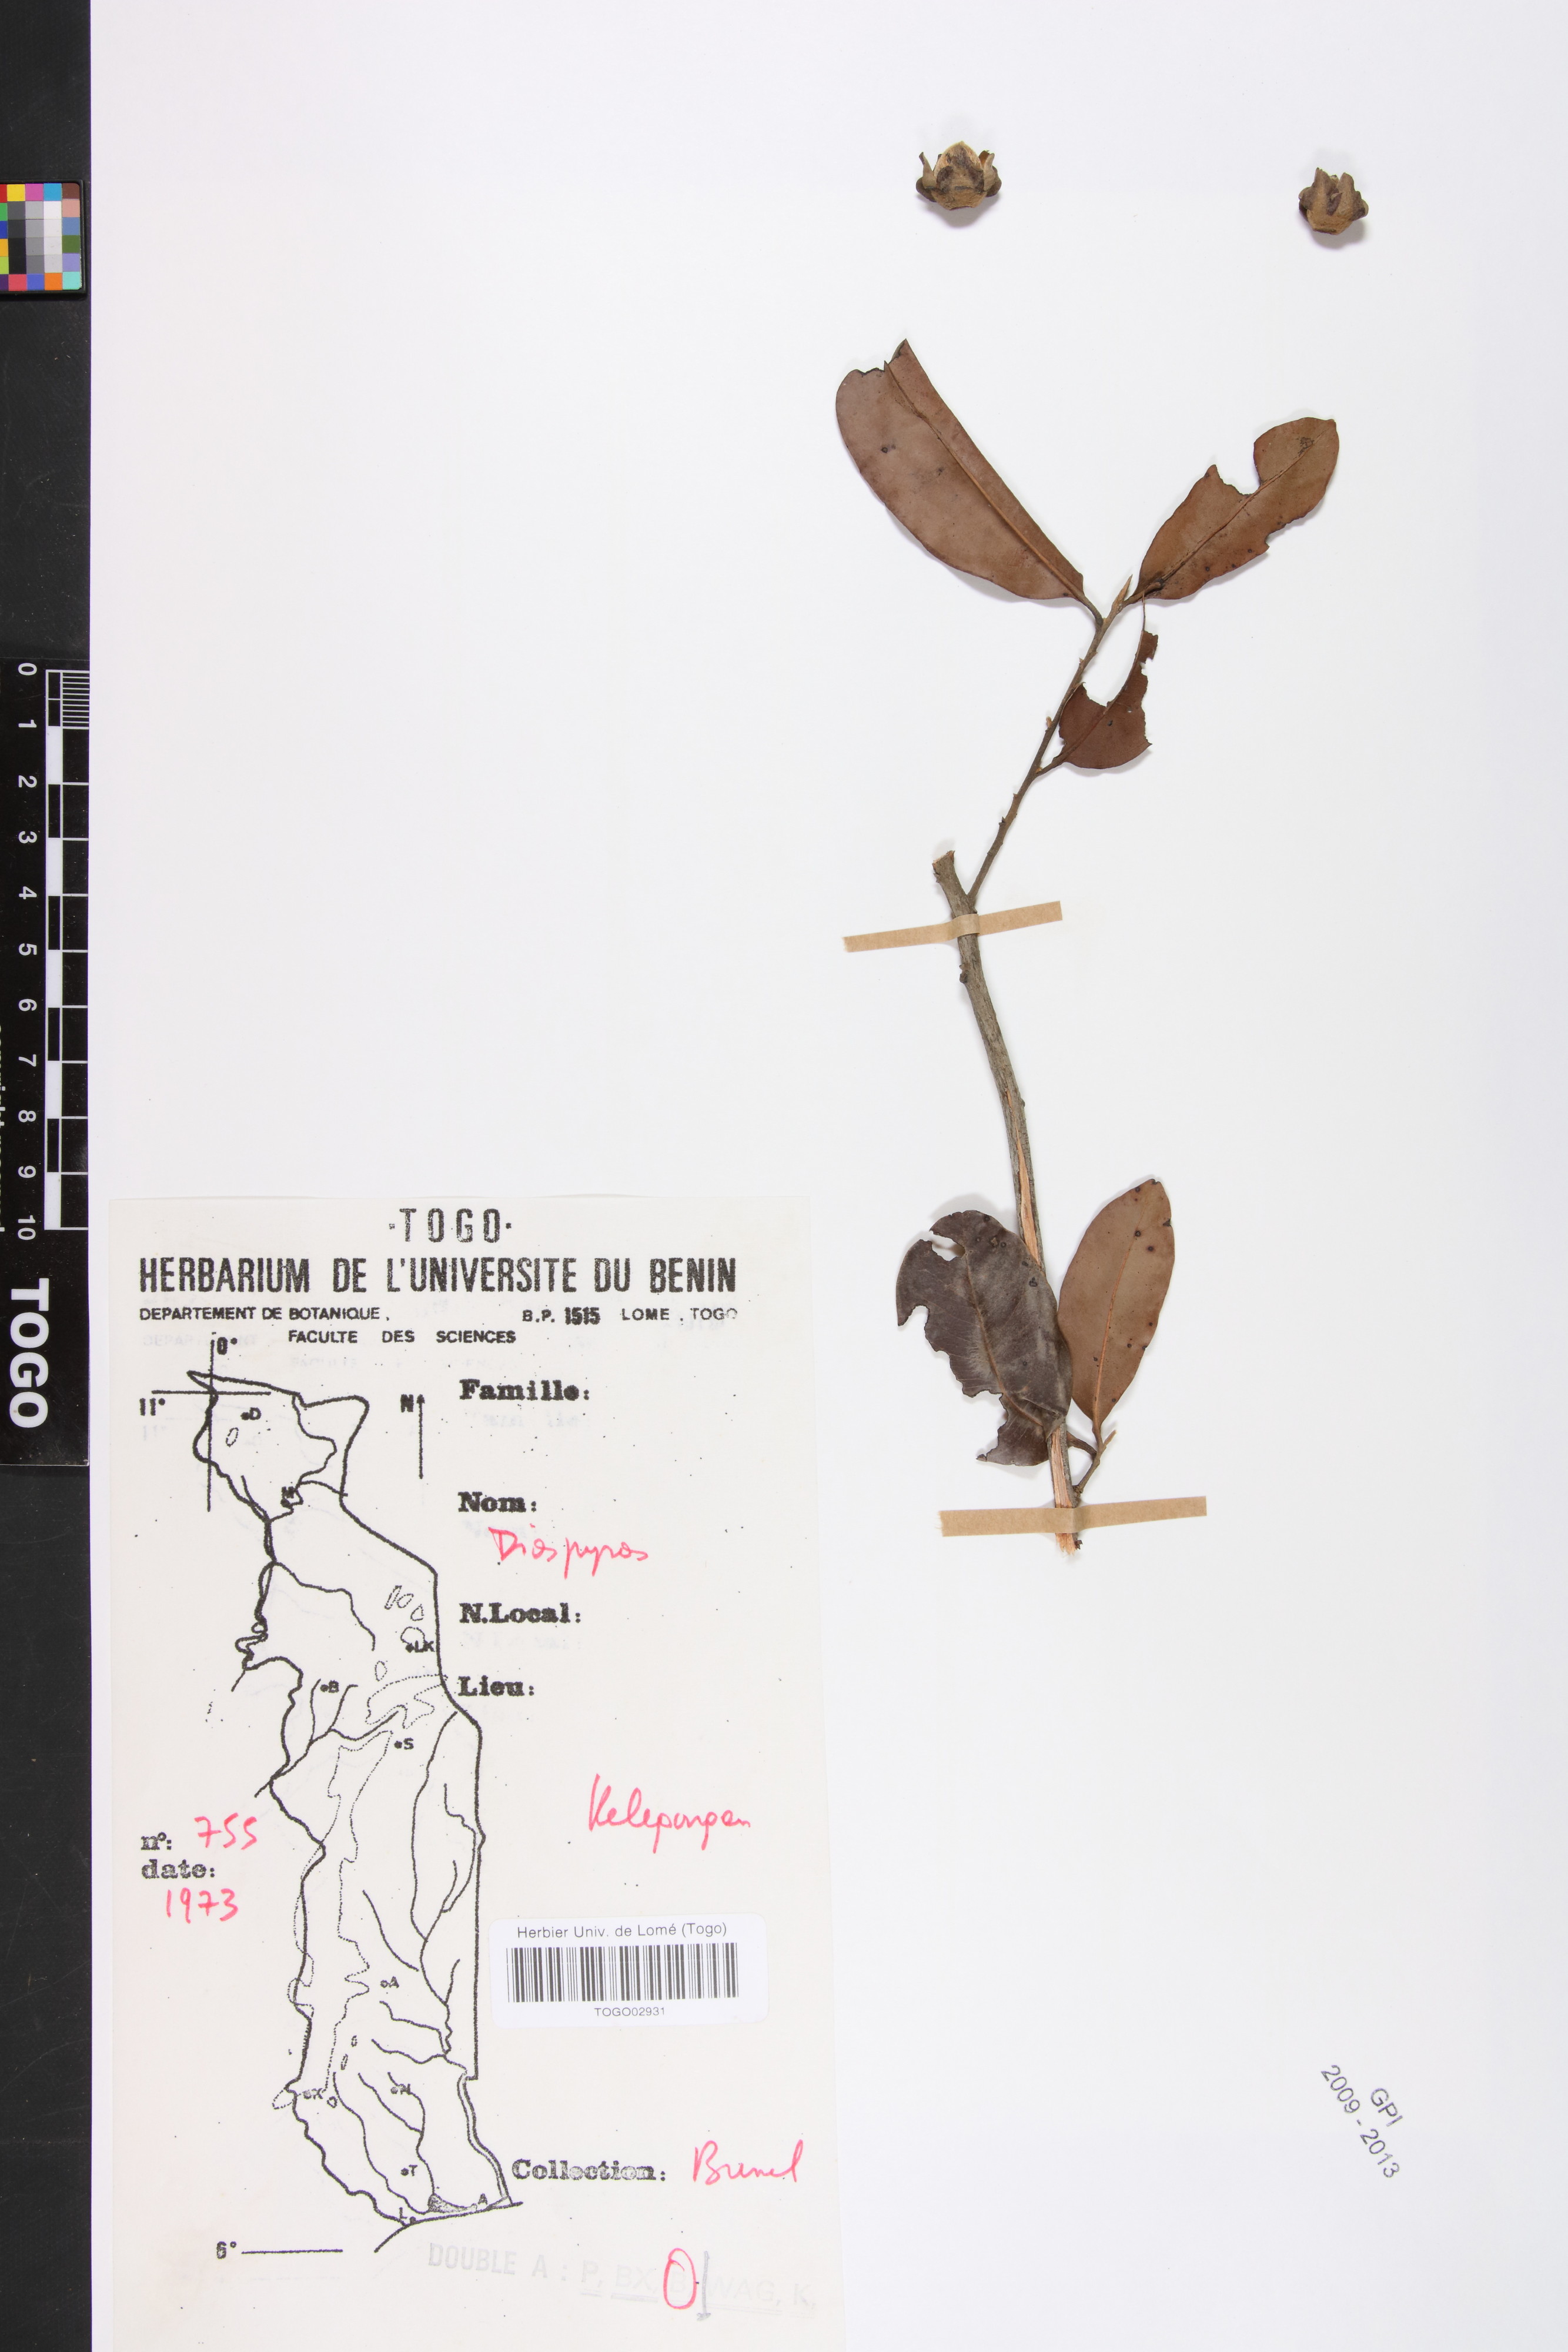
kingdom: Plantae
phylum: Tracheophyta
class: Magnoliopsida
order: Ericales
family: Ebenaceae
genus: Diospyros
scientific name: Diospyros mespiliformis
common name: Ebony diospyros
